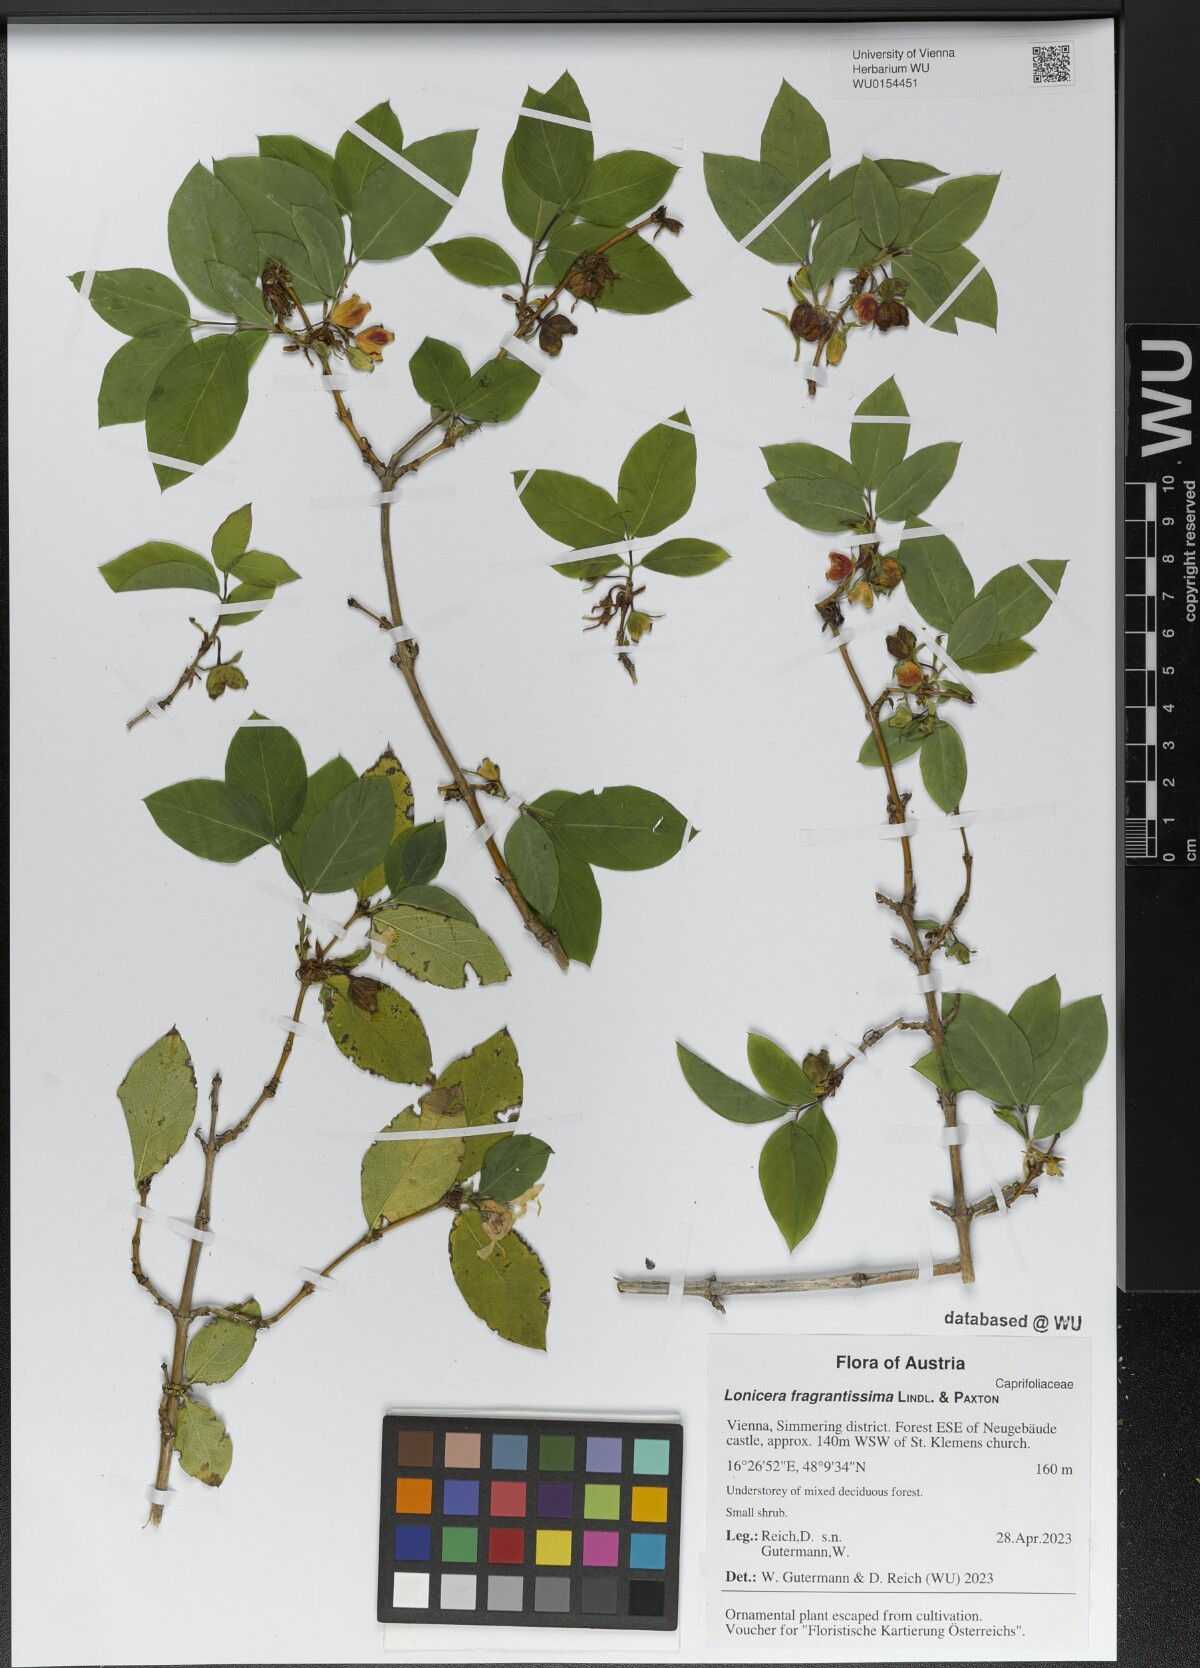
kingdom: Plantae
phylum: Tracheophyta
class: Magnoliopsida
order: Dipsacales
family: Caprifoliaceae
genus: Lonicera
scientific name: Lonicera fragrantissima
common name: Fragrant honeysuckle
